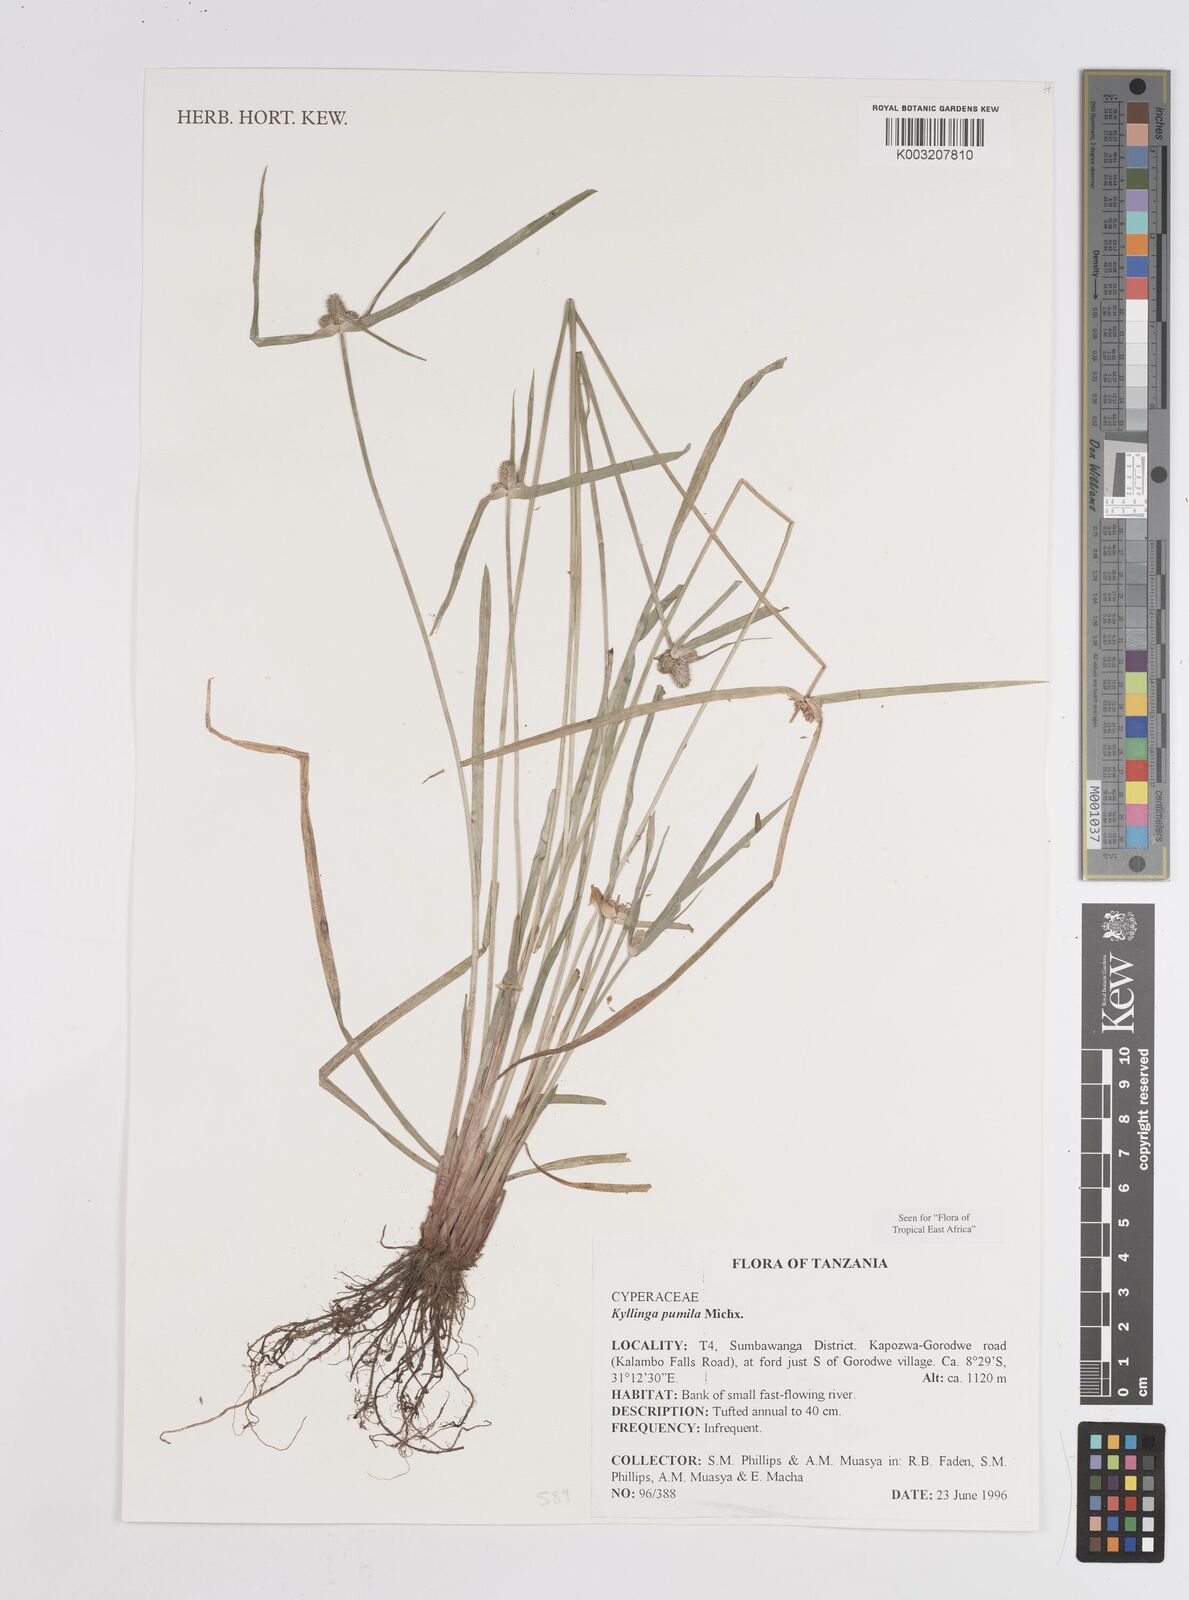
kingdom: Plantae
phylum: Tracheophyta
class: Liliopsida
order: Poales
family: Cyperaceae
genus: Cyperus
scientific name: Cyperus hortensis
